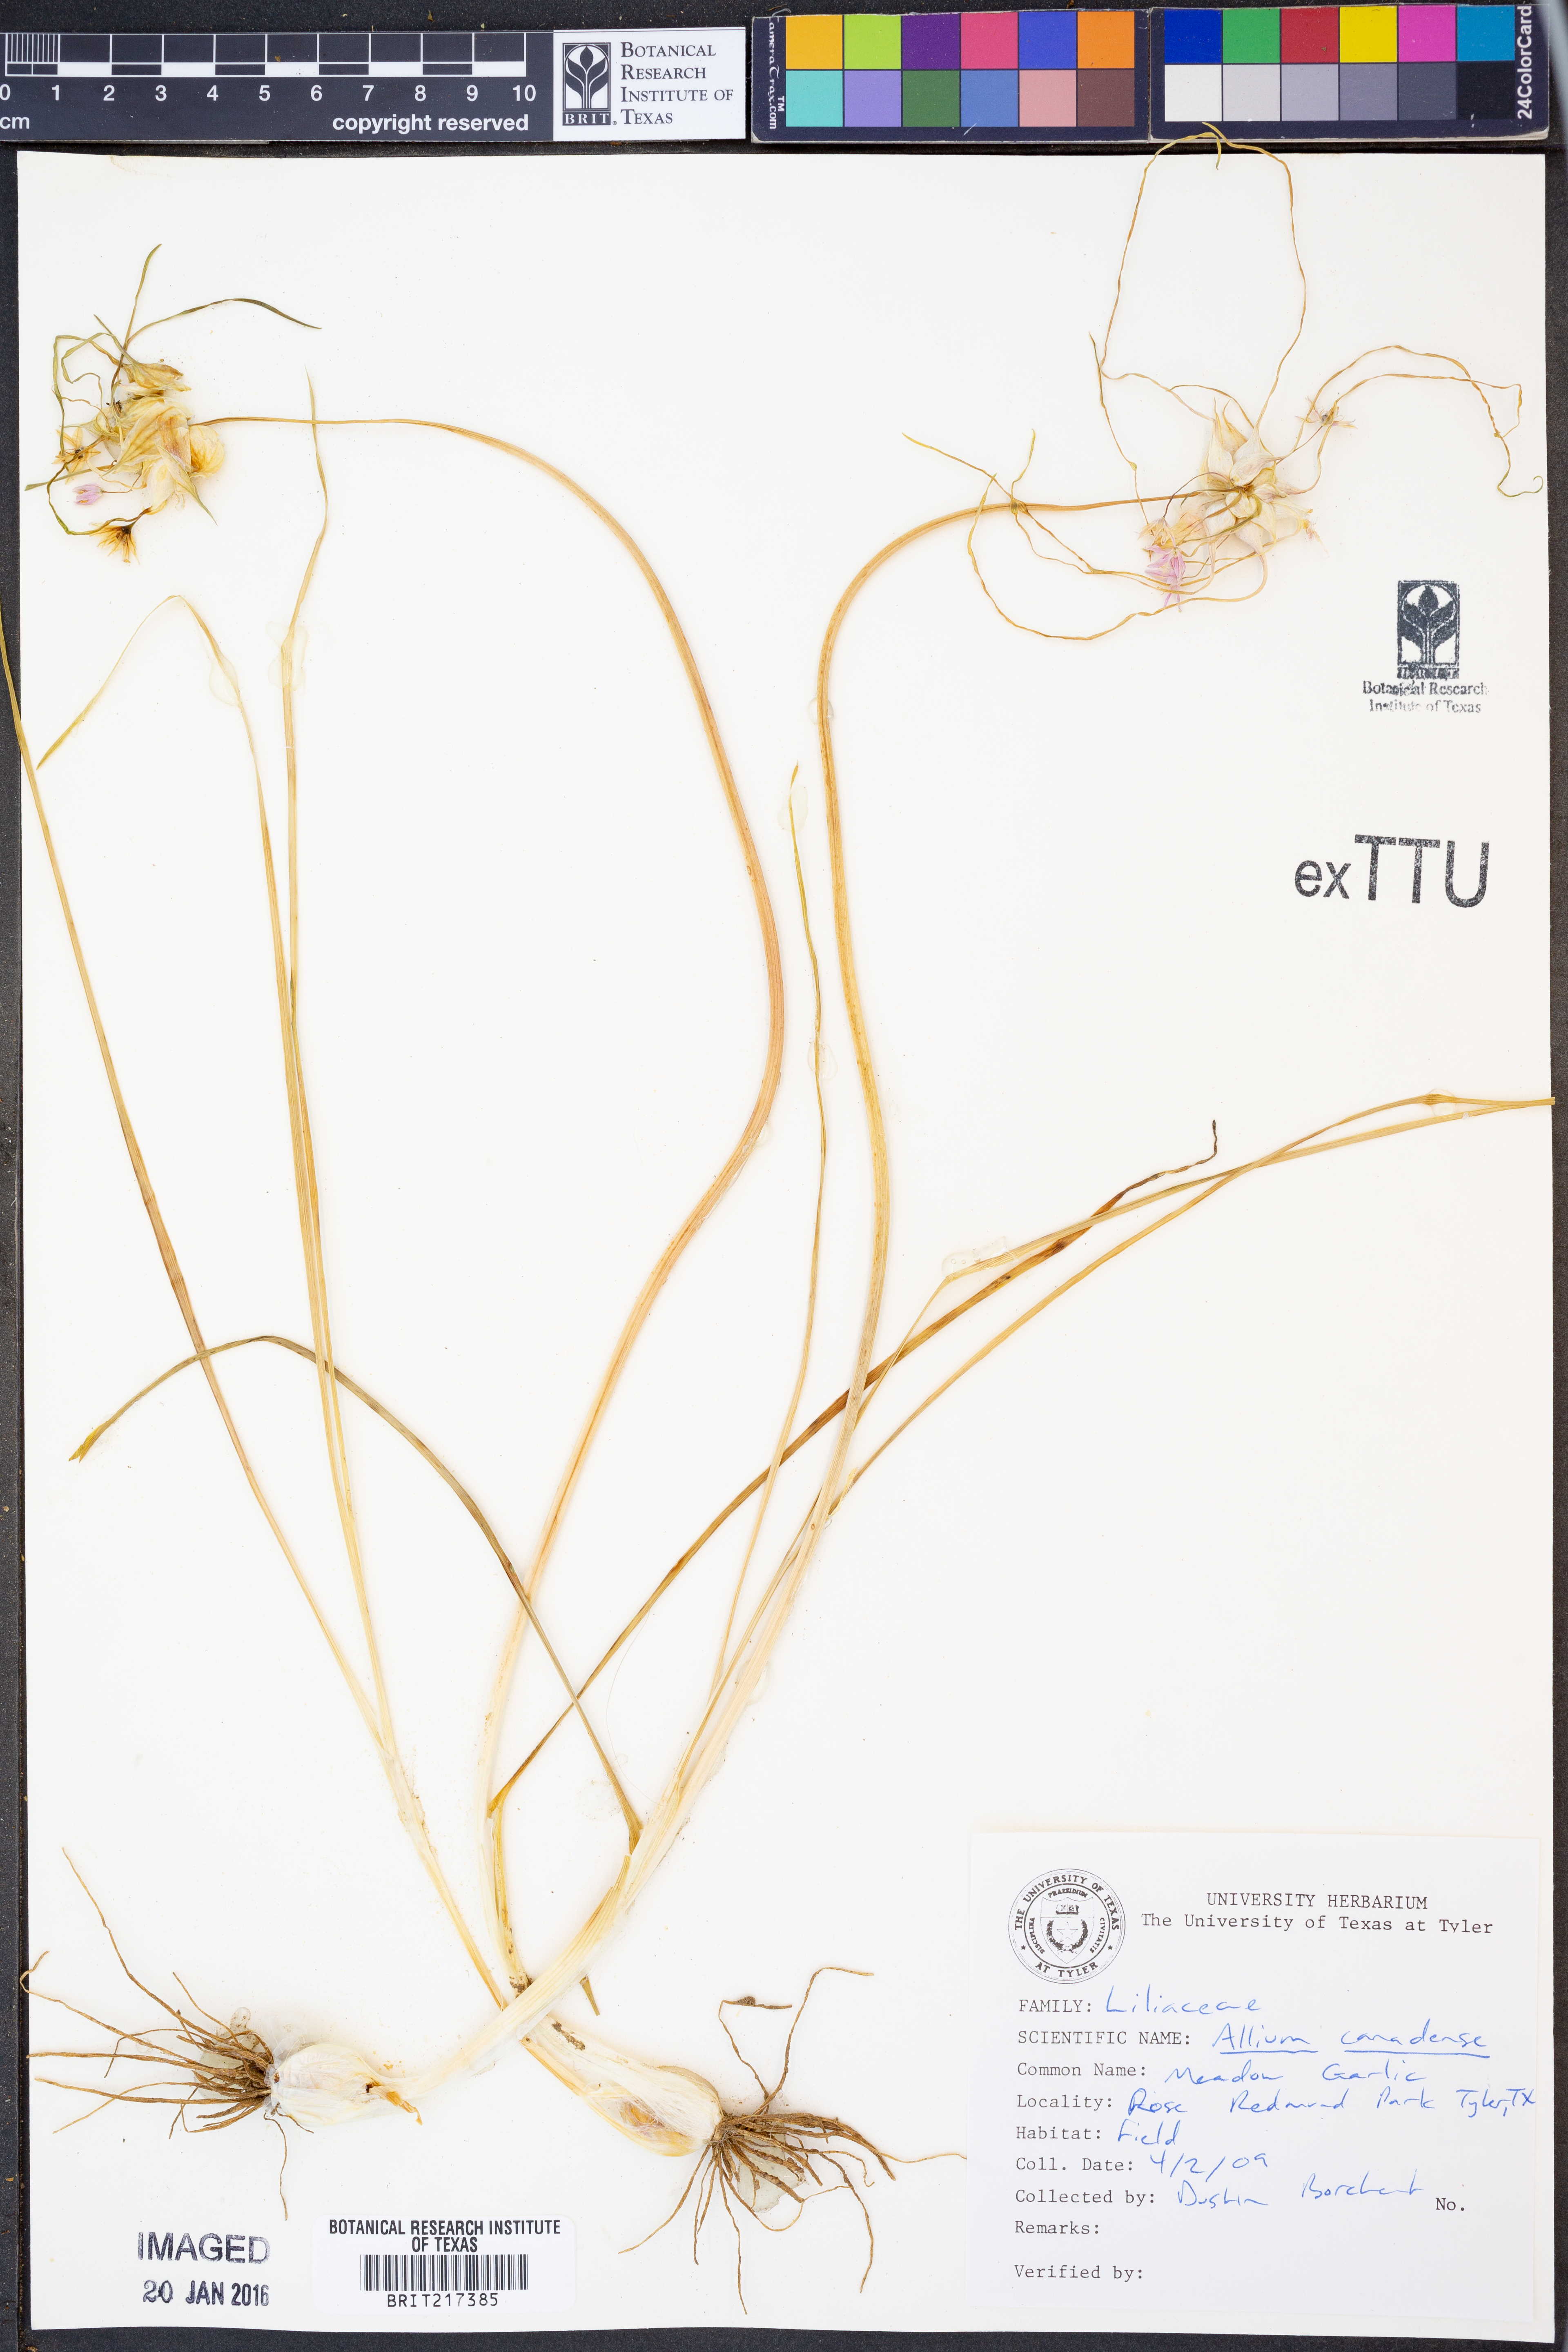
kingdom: Plantae
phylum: Tracheophyta
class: Liliopsida
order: Asparagales
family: Amaryllidaceae
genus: Allium
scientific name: Allium canadense
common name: Meadow garlic
